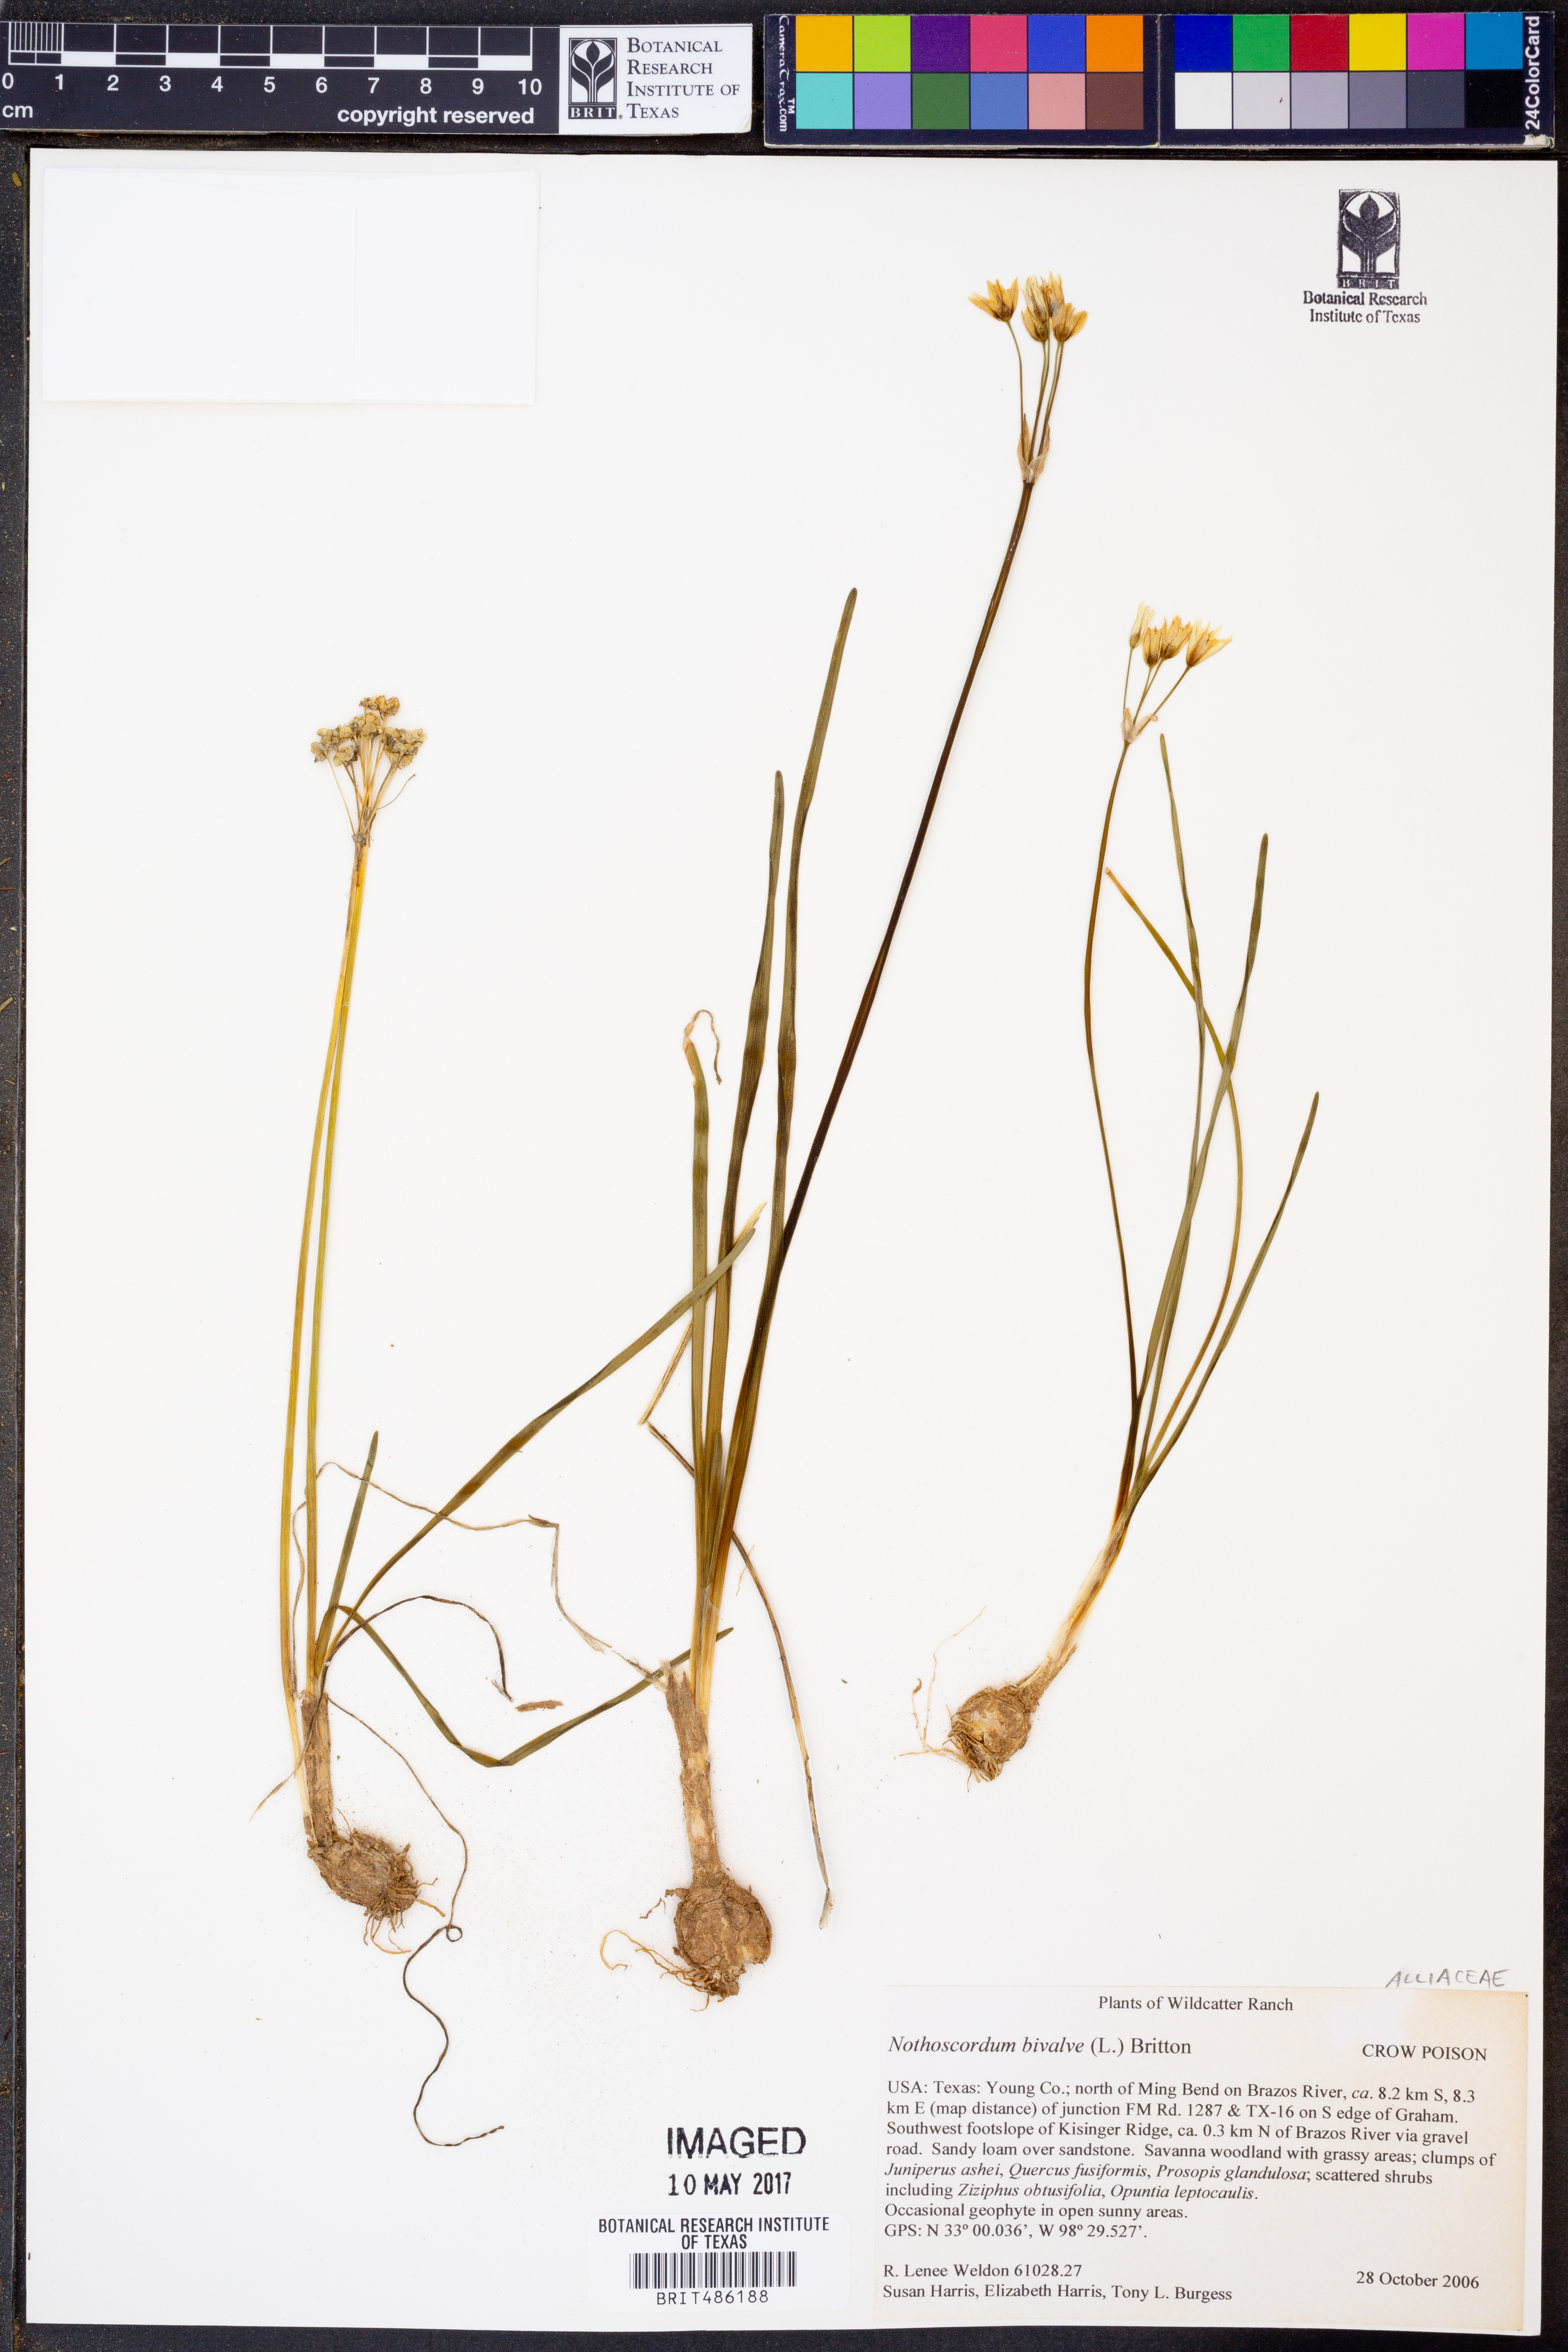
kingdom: Plantae
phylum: Tracheophyta
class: Liliopsida
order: Asparagales
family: Amaryllidaceae
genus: Nothoscordum
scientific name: Nothoscordum bivalve
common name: Crow-poison
